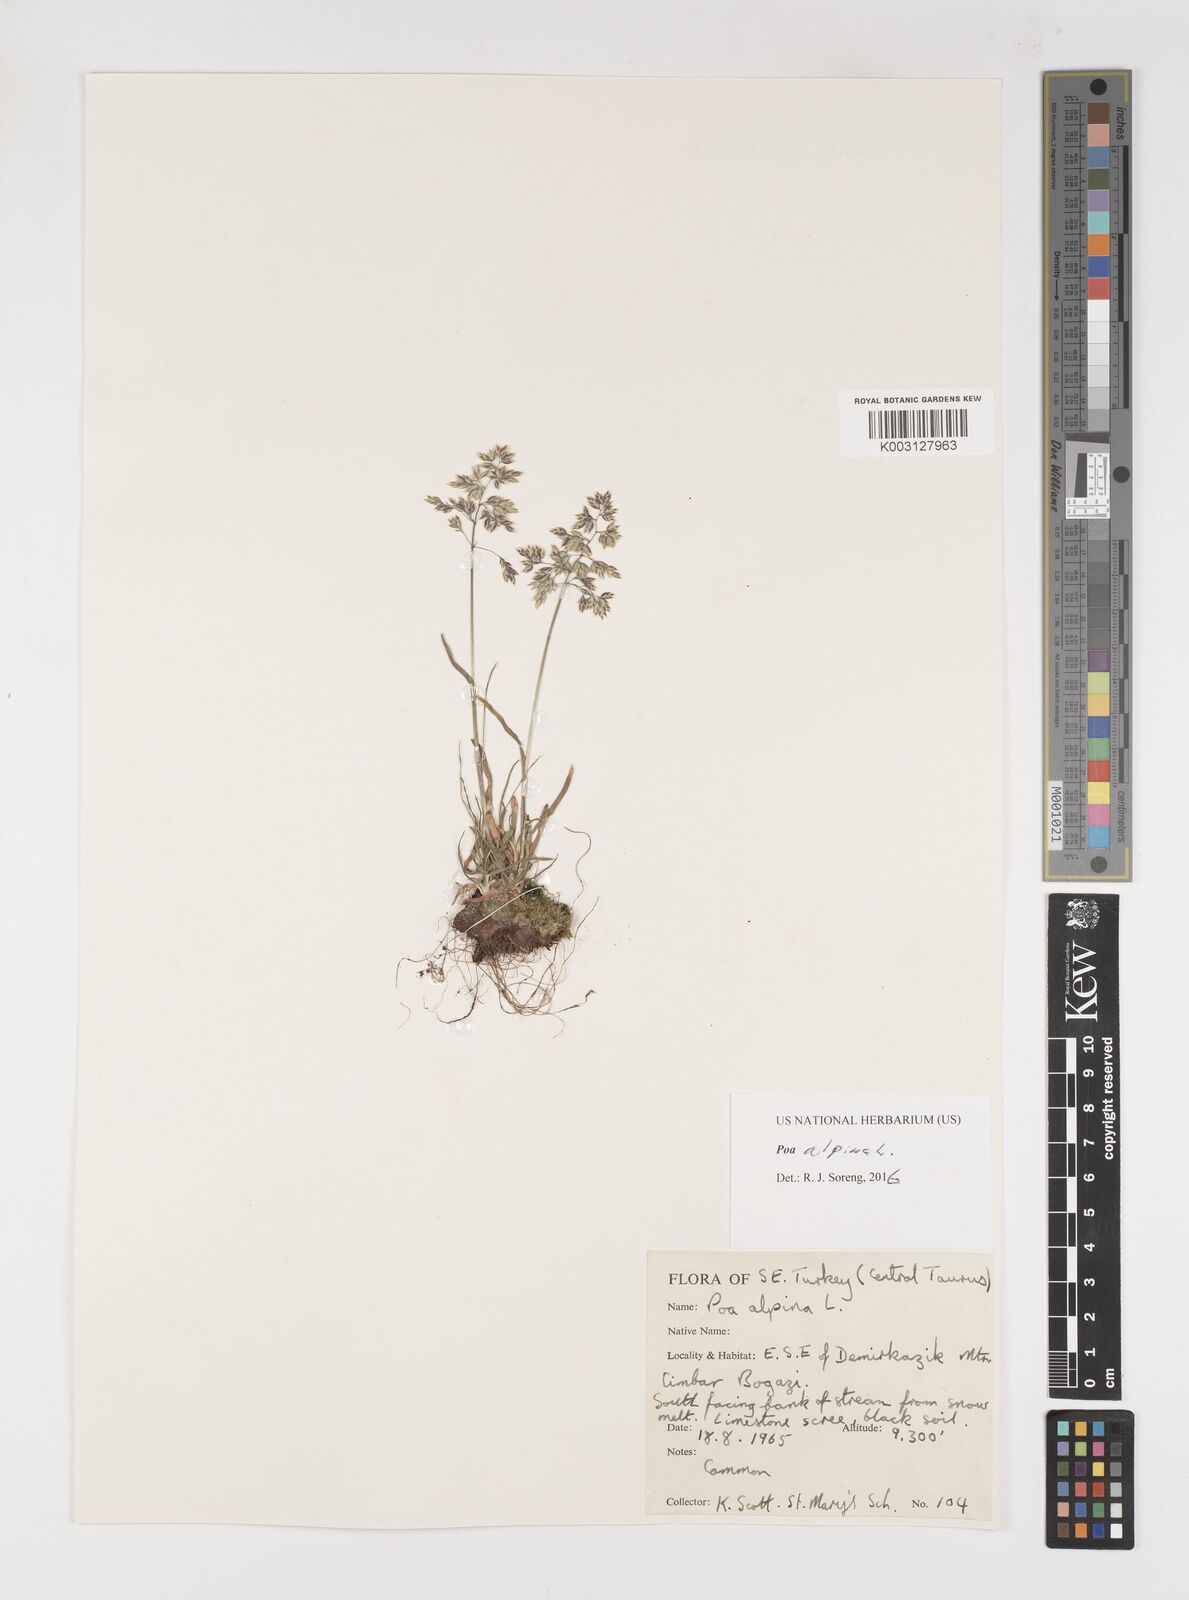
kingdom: Plantae
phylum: Tracheophyta
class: Liliopsida
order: Poales
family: Poaceae
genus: Poa
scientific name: Poa alpina
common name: Alpine bluegrass
